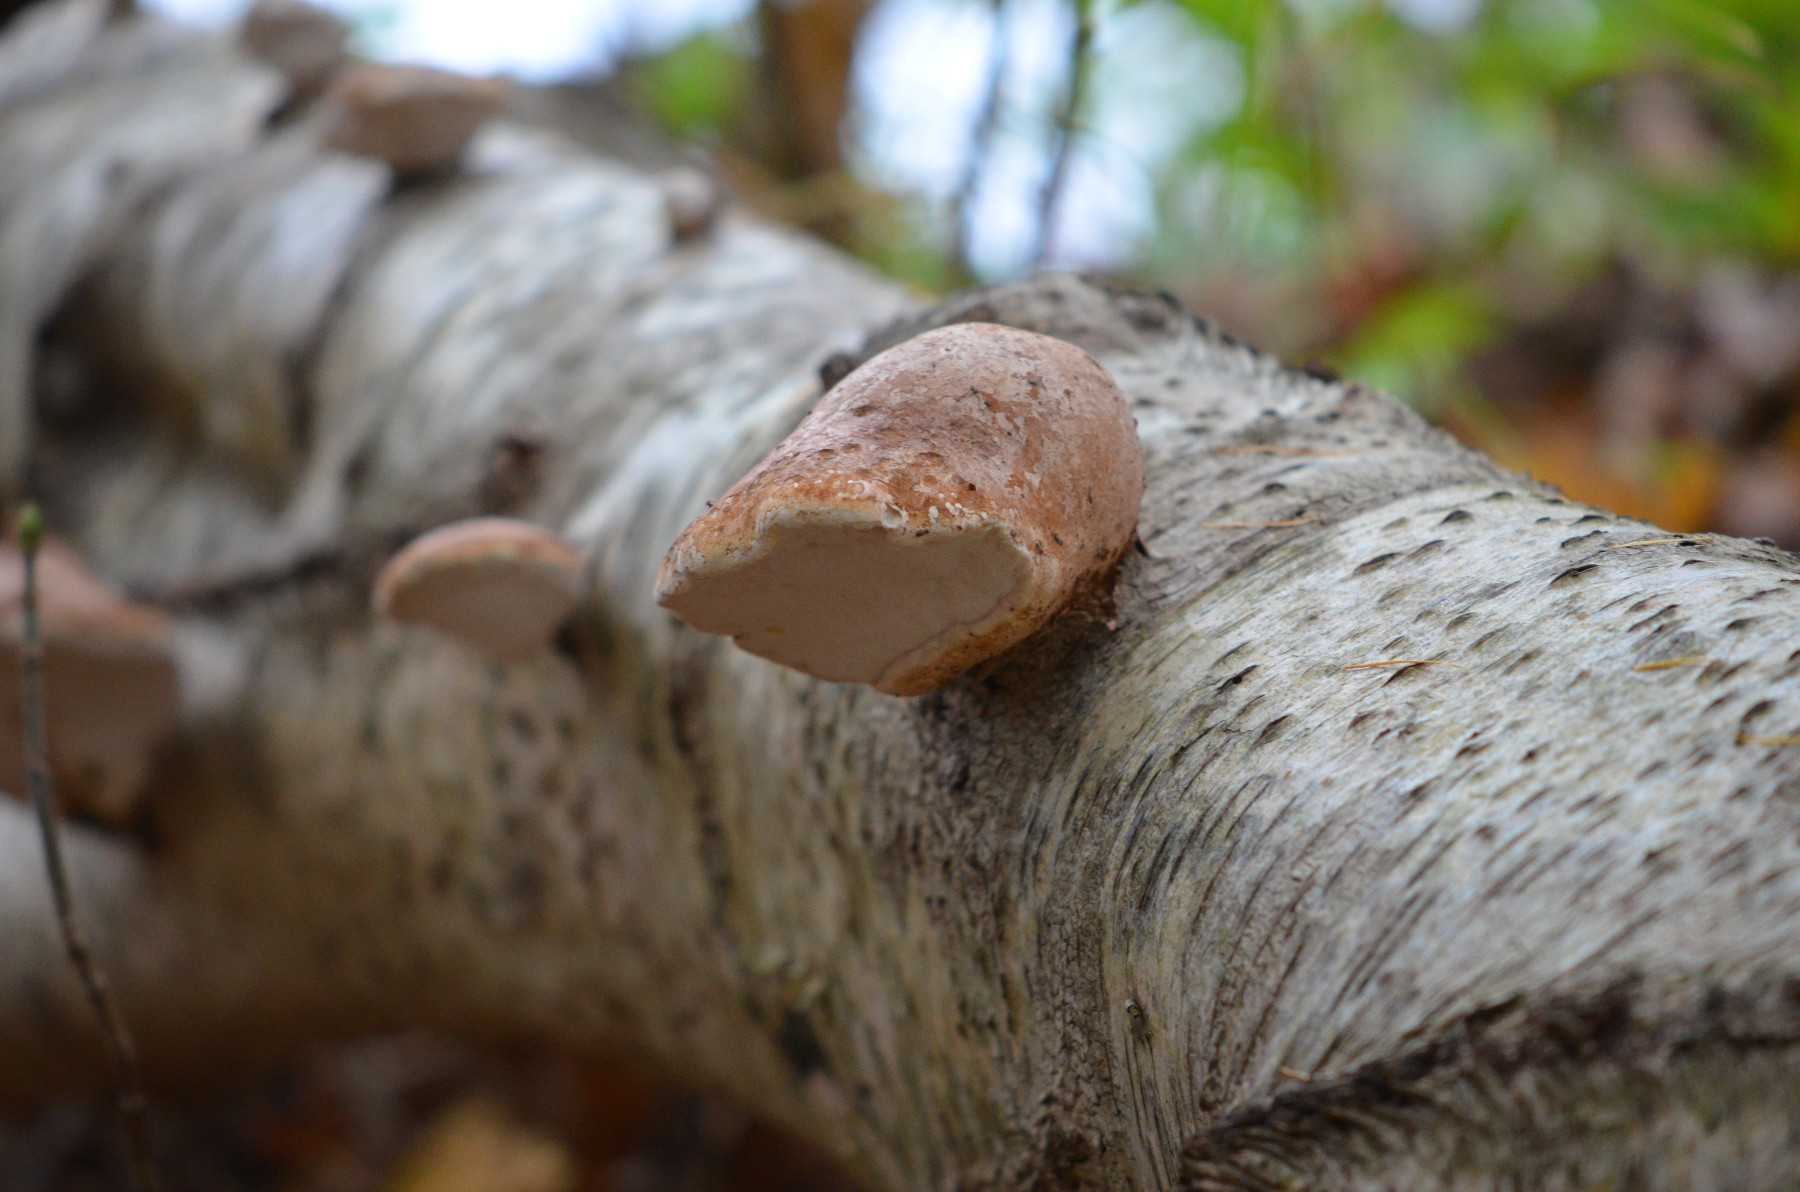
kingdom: Fungi
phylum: Basidiomycota
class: Agaricomycetes
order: Polyporales
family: Fomitopsidaceae
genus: Fomitopsis
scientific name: Fomitopsis betulina
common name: birkeporesvamp
